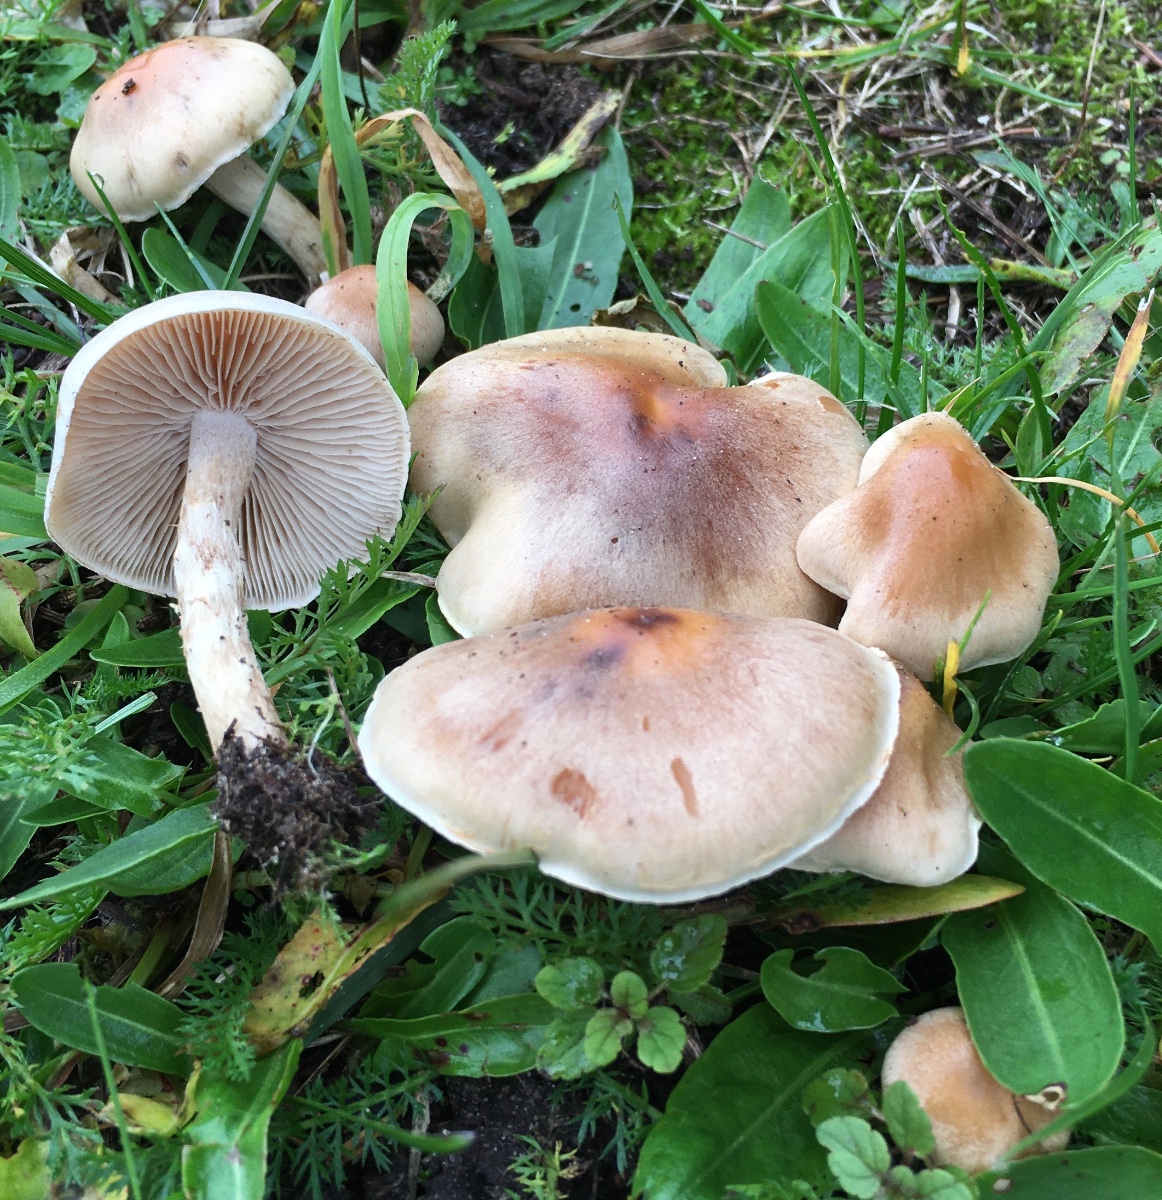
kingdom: Fungi
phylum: Basidiomycota
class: Agaricomycetes
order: Agaricales
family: Hymenogastraceae
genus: Hebeloma
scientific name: Hebeloma mesophaeum
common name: lerbrun tåreblad
